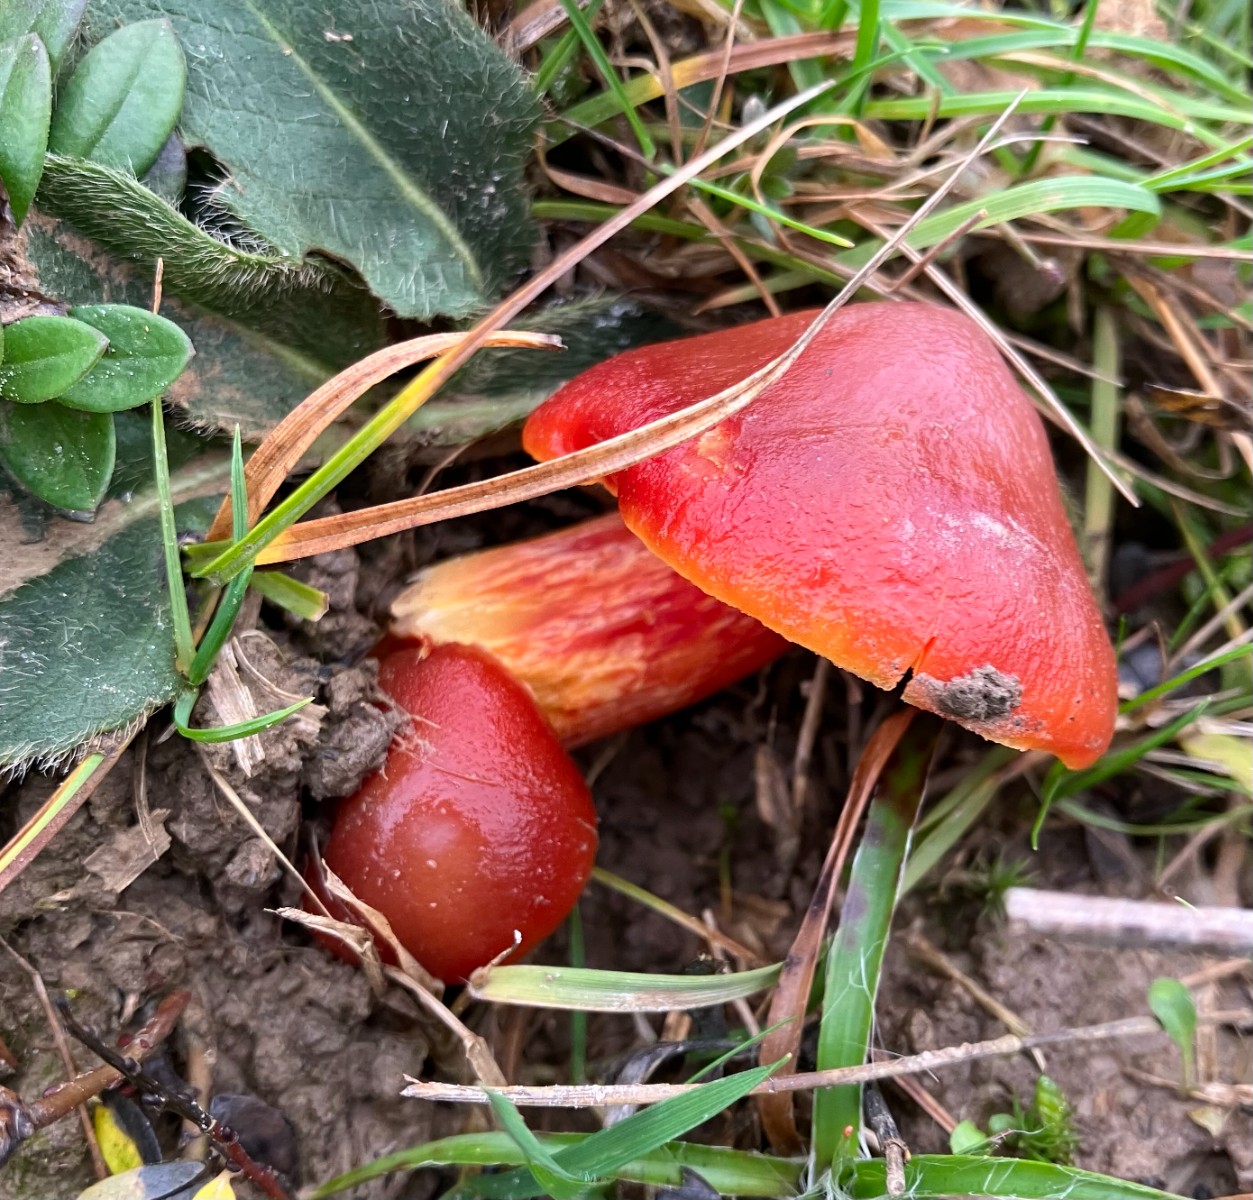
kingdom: Fungi
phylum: Basidiomycota
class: Agaricomycetes
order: Agaricales
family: Hygrophoraceae
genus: Hygrocybe
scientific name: Hygrocybe punicea
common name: skarlagen-vokshat
